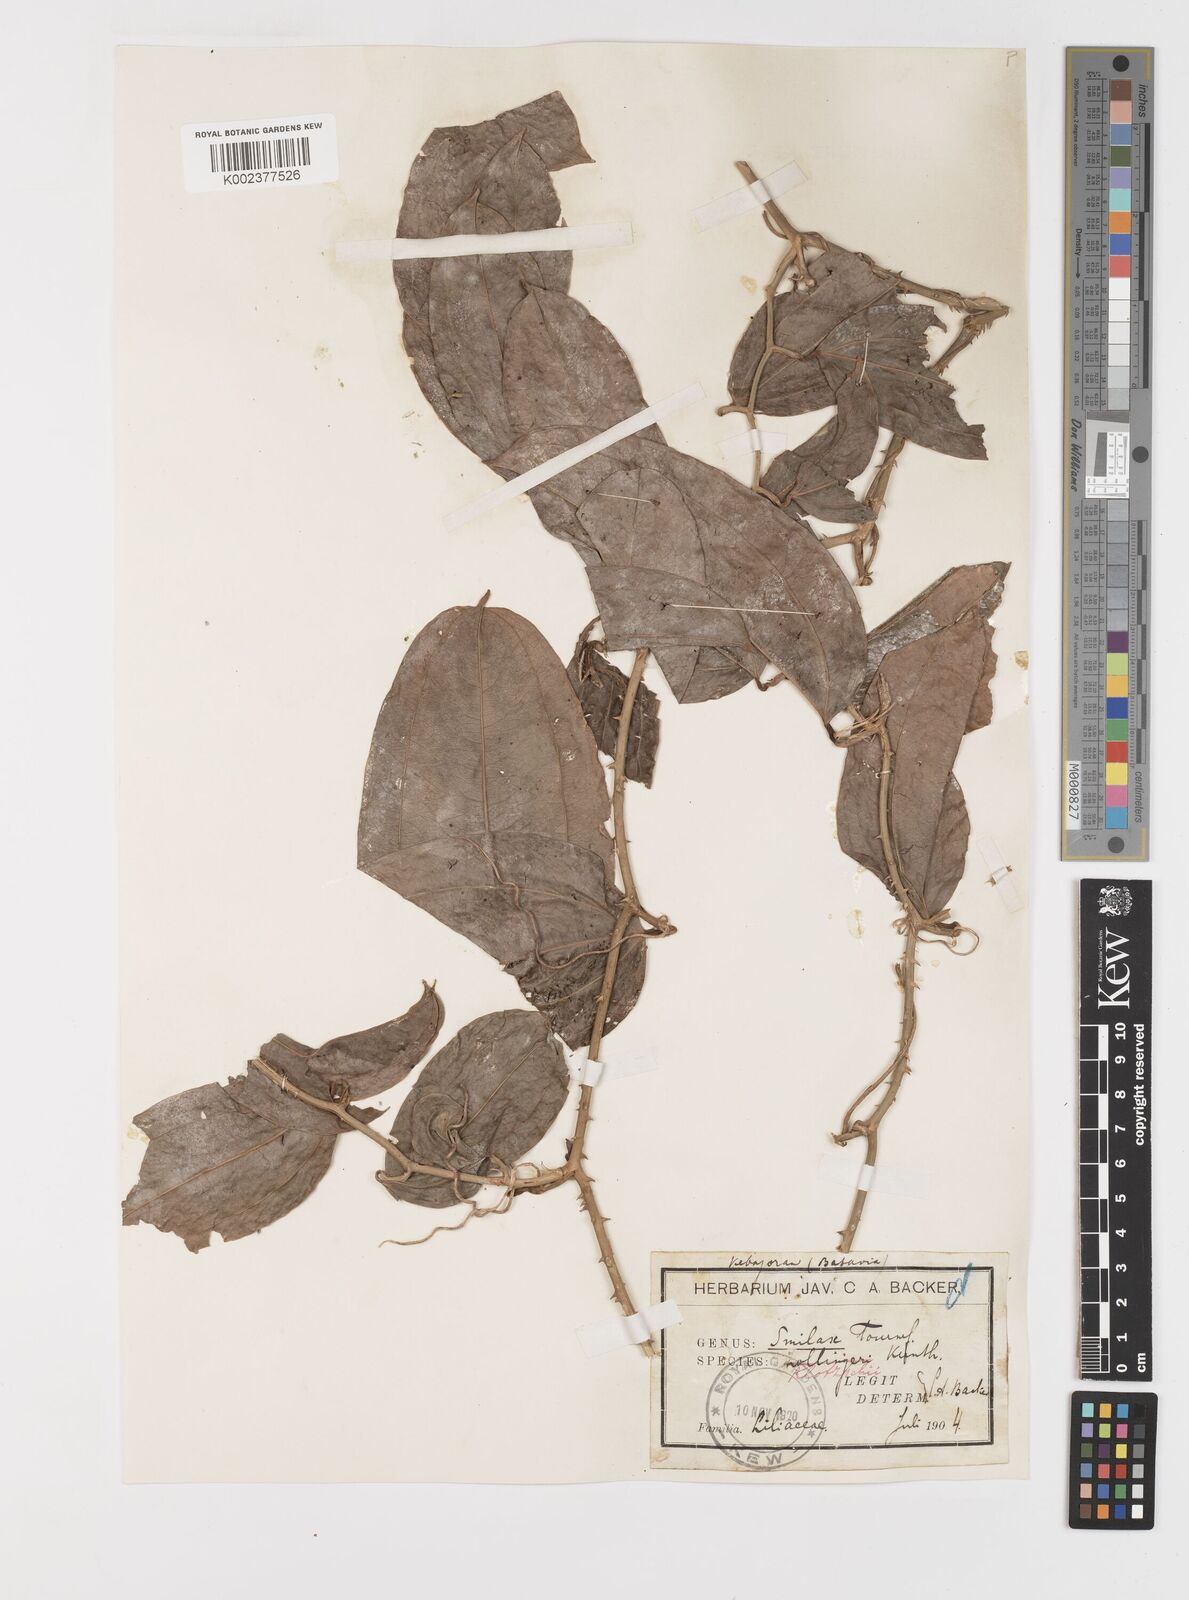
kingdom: Plantae
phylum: Tracheophyta
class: Liliopsida
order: Liliales
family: Smilacaceae
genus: Smilax
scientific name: Smilax klotzschii
